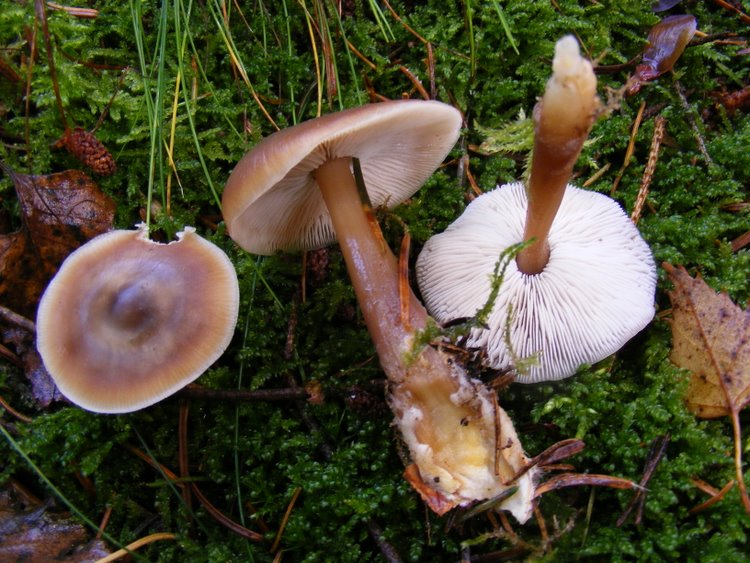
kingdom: Fungi
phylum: Basidiomycota
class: Agaricomycetes
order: Agaricales
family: Omphalotaceae
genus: Rhodocollybia
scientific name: Rhodocollybia asema
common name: horngrå fladhat
